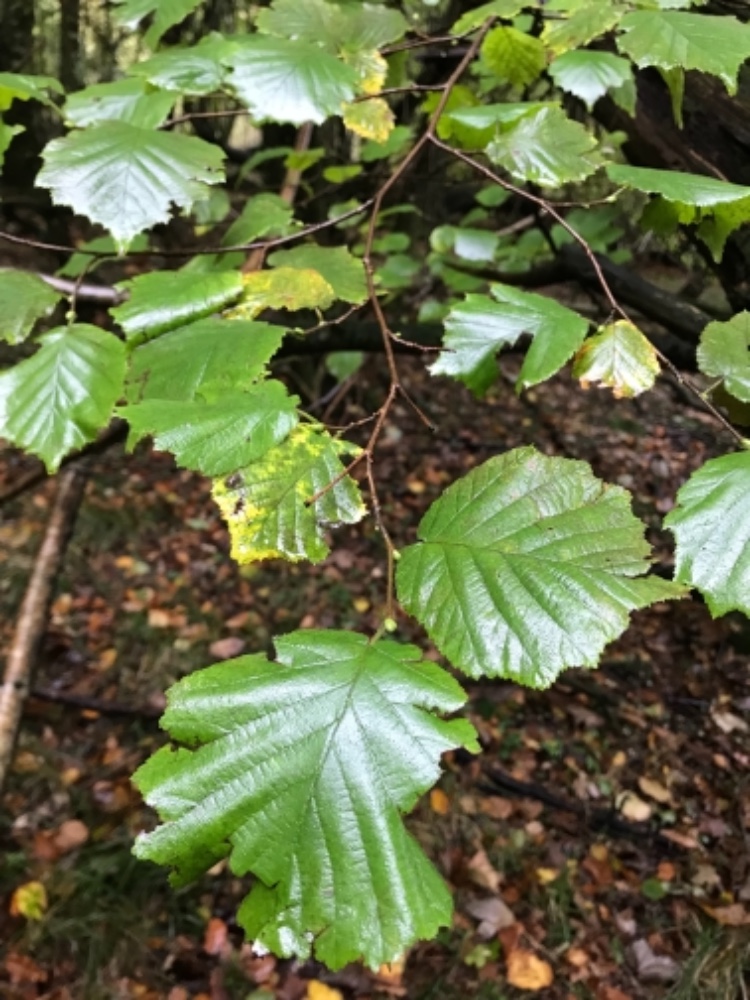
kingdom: Fungi
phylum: Basidiomycota
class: Agaricomycetes
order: Amylocorticiales
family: Amylocorticiaceae
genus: Plicaturopsis
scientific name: Plicaturopsis crispa
